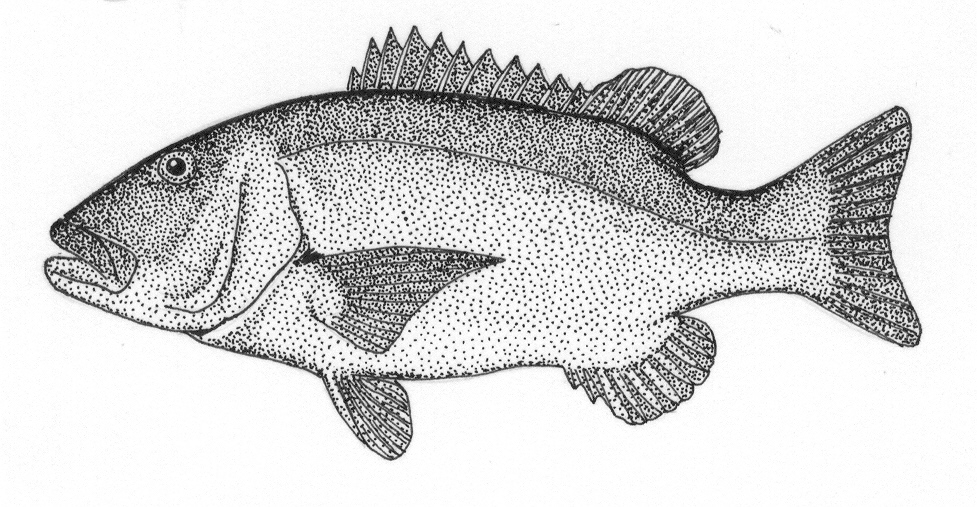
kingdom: Animalia
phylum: Chordata
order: Perciformes
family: Sparidae
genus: Petrus
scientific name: Petrus rupestris
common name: Red steenbras
